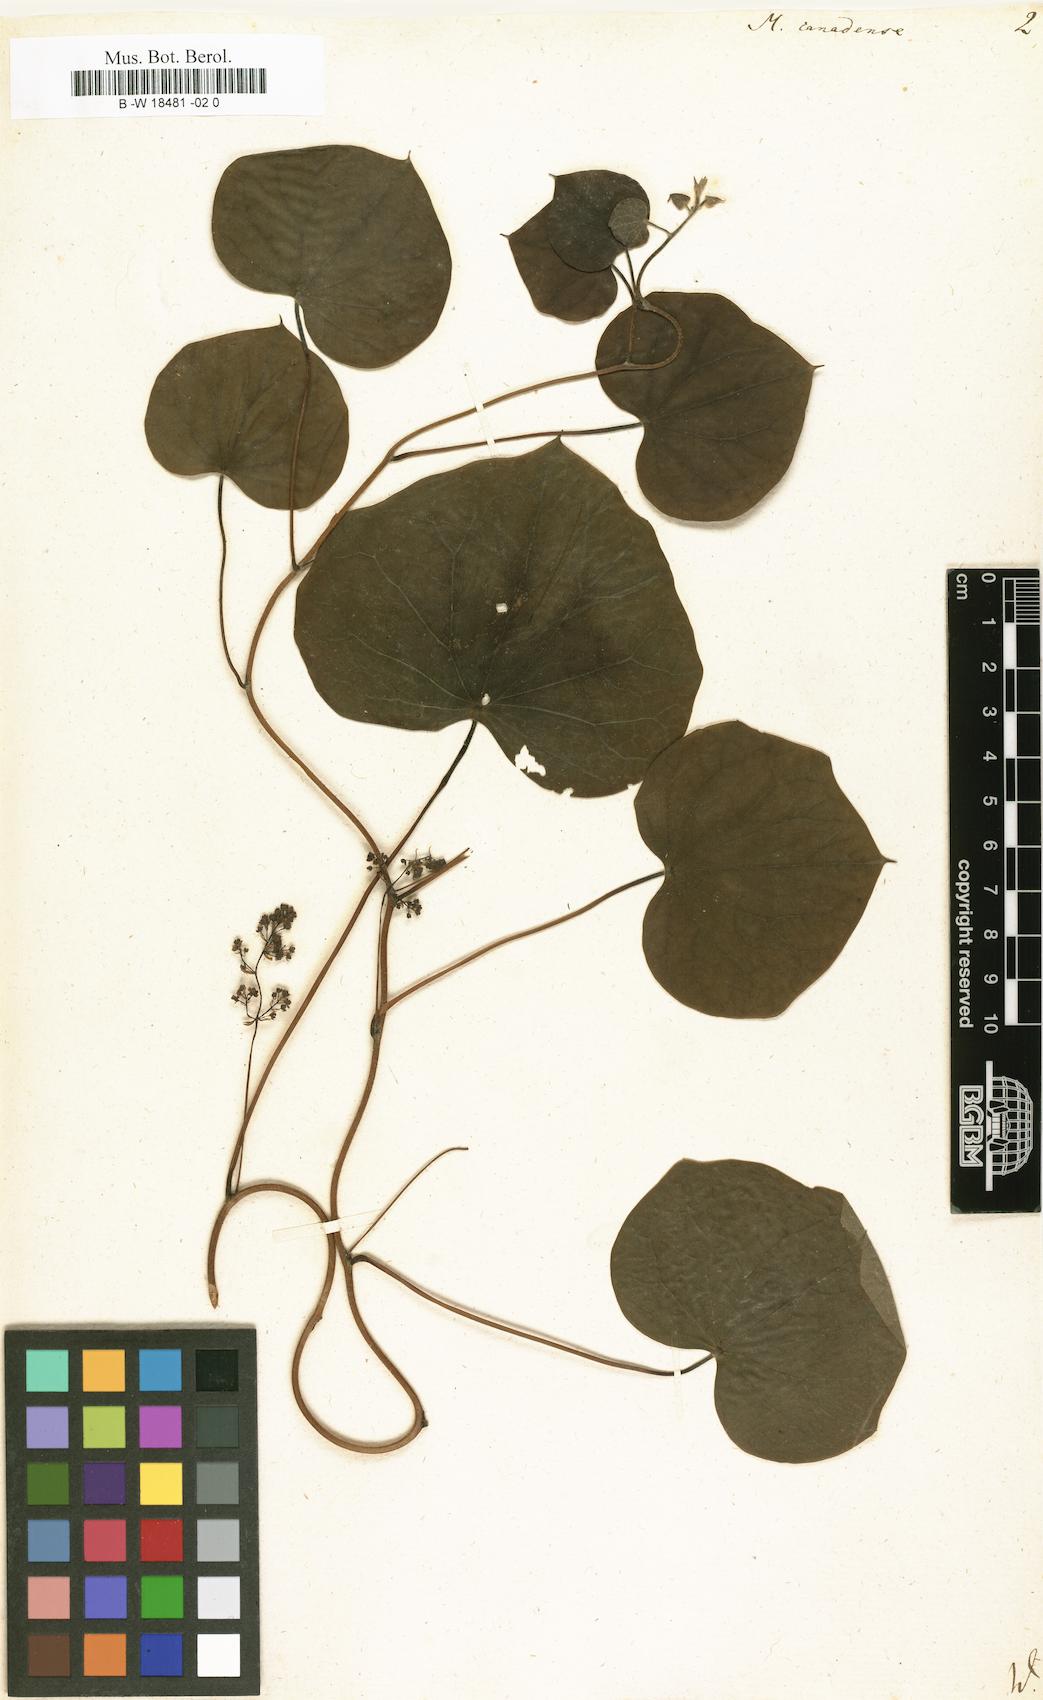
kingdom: Plantae
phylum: Tracheophyta
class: Magnoliopsida
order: Ranunculales
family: Menispermaceae
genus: Menispermum
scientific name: Menispermum canadense
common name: Moonseed
